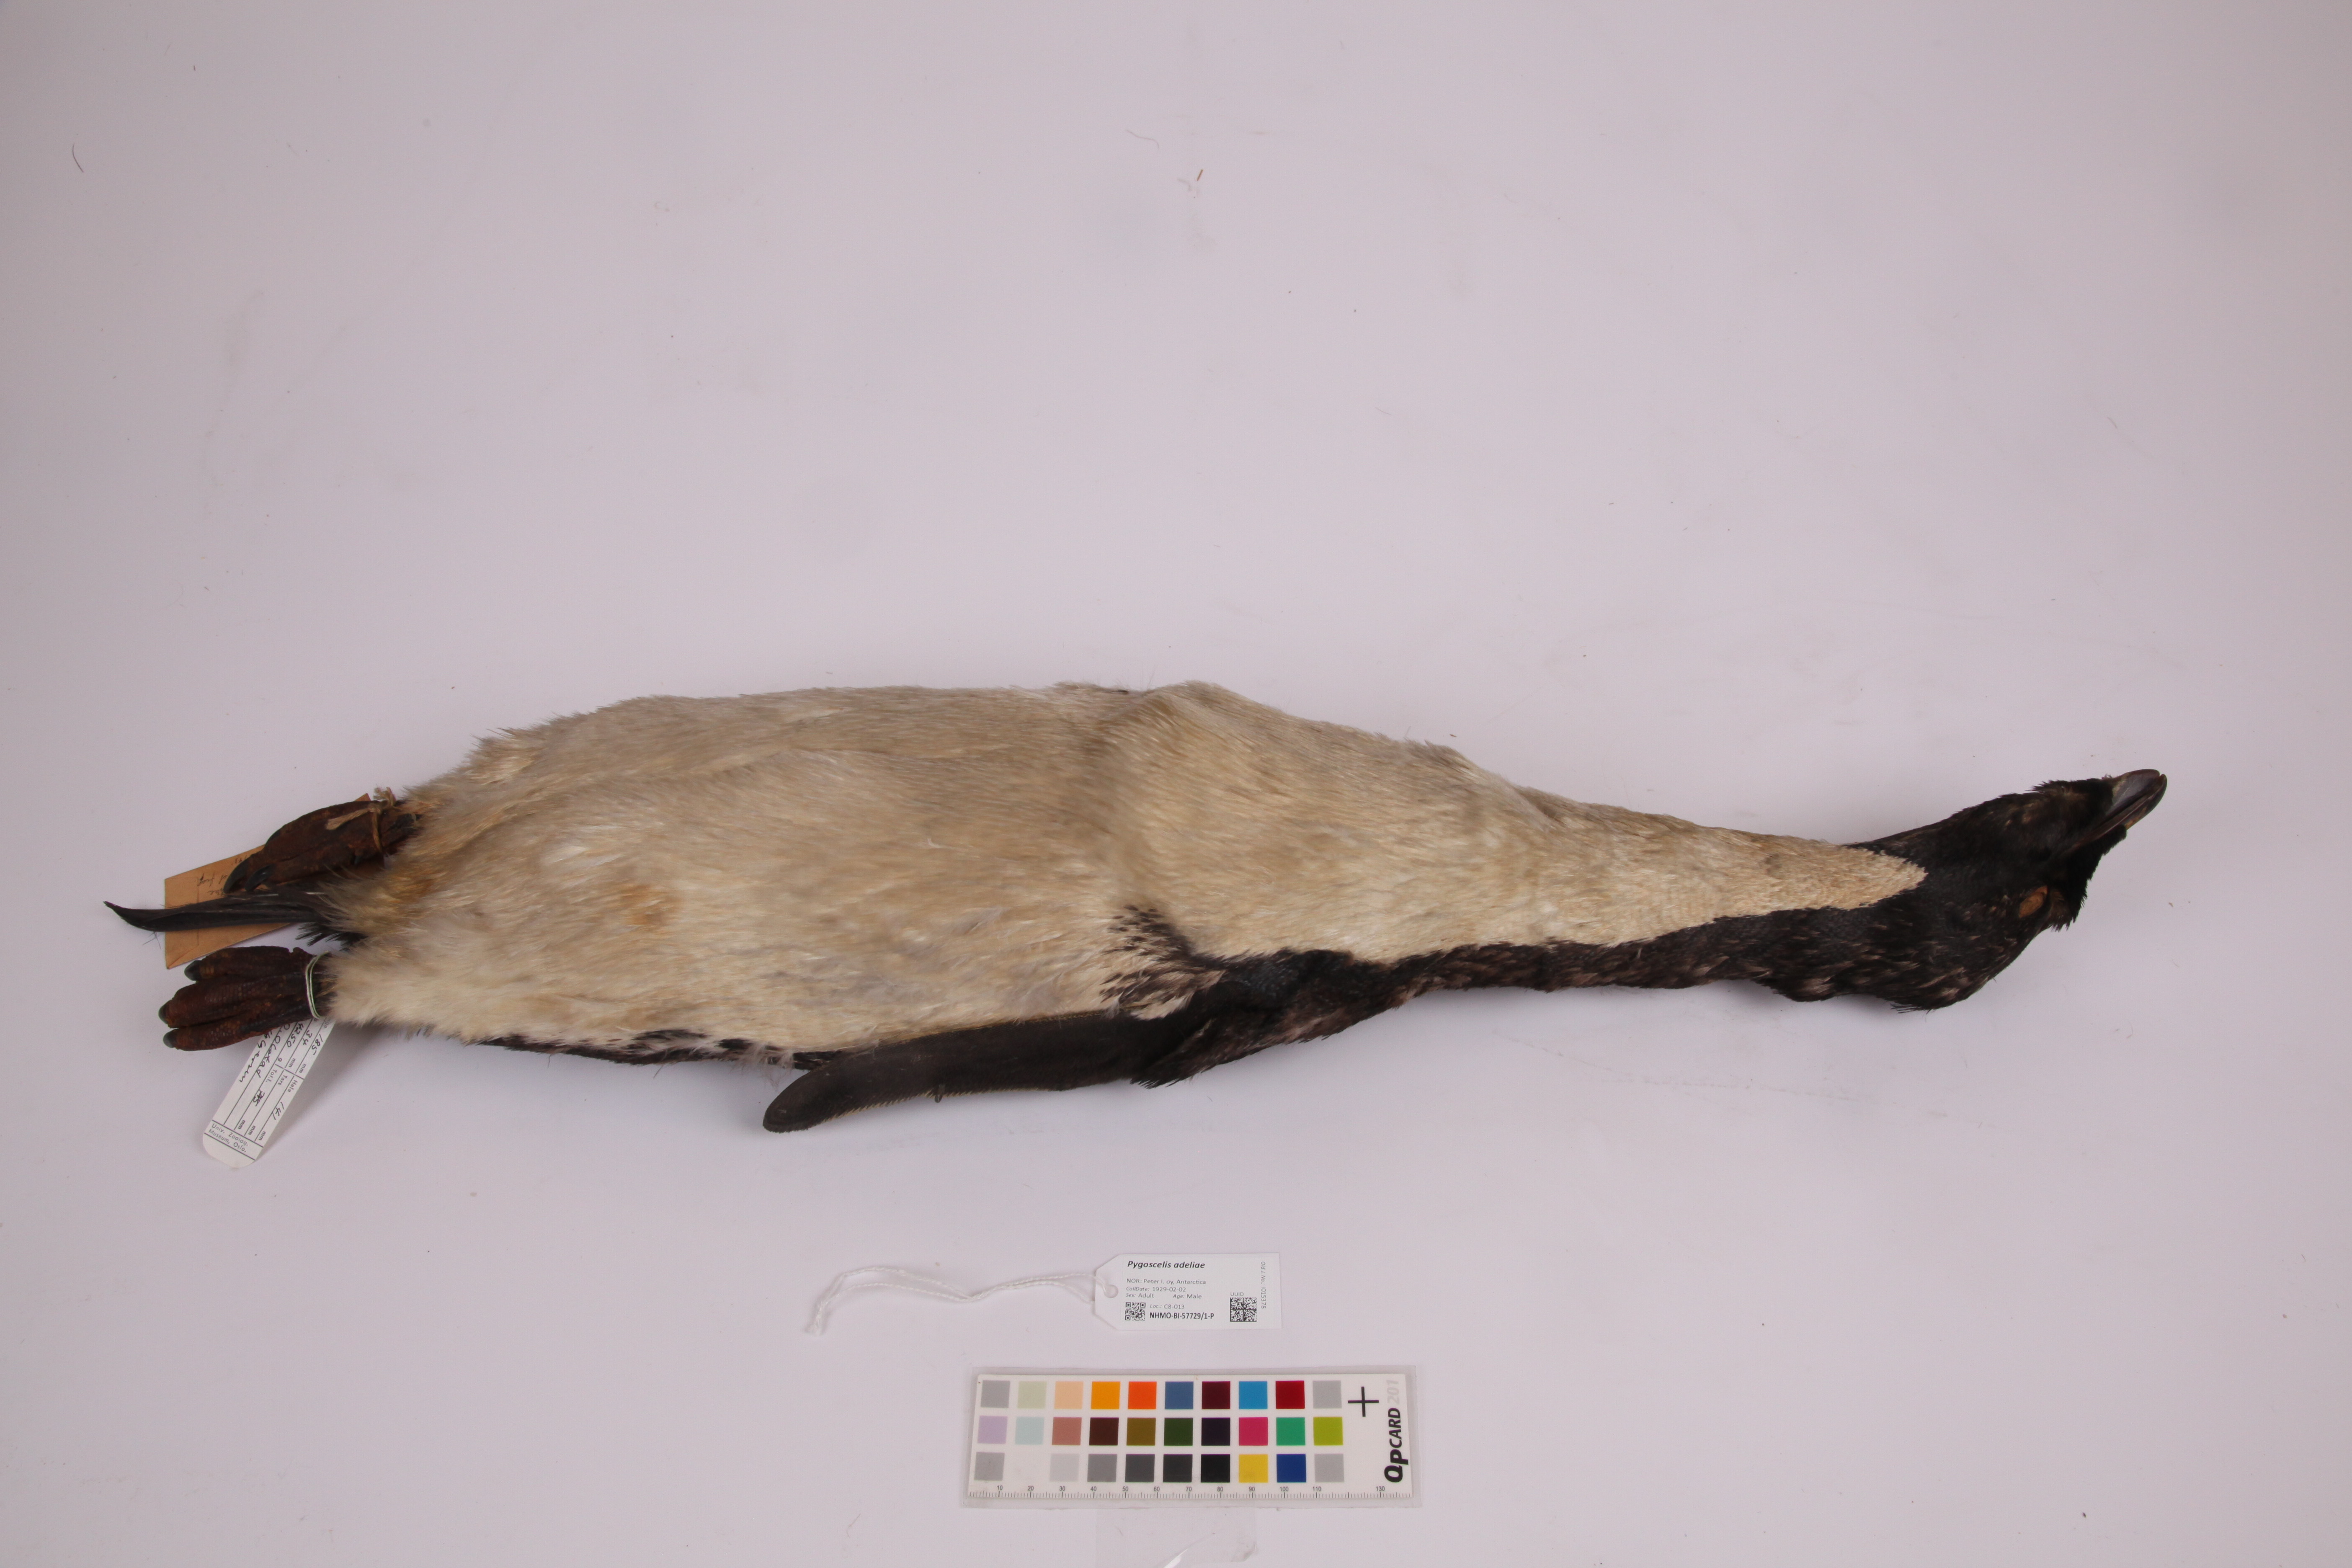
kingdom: Animalia
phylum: Chordata
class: Aves
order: Sphenisciformes
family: Spheniscidae
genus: Pygoscelis
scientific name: Pygoscelis adeliae
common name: Adelie penguin
